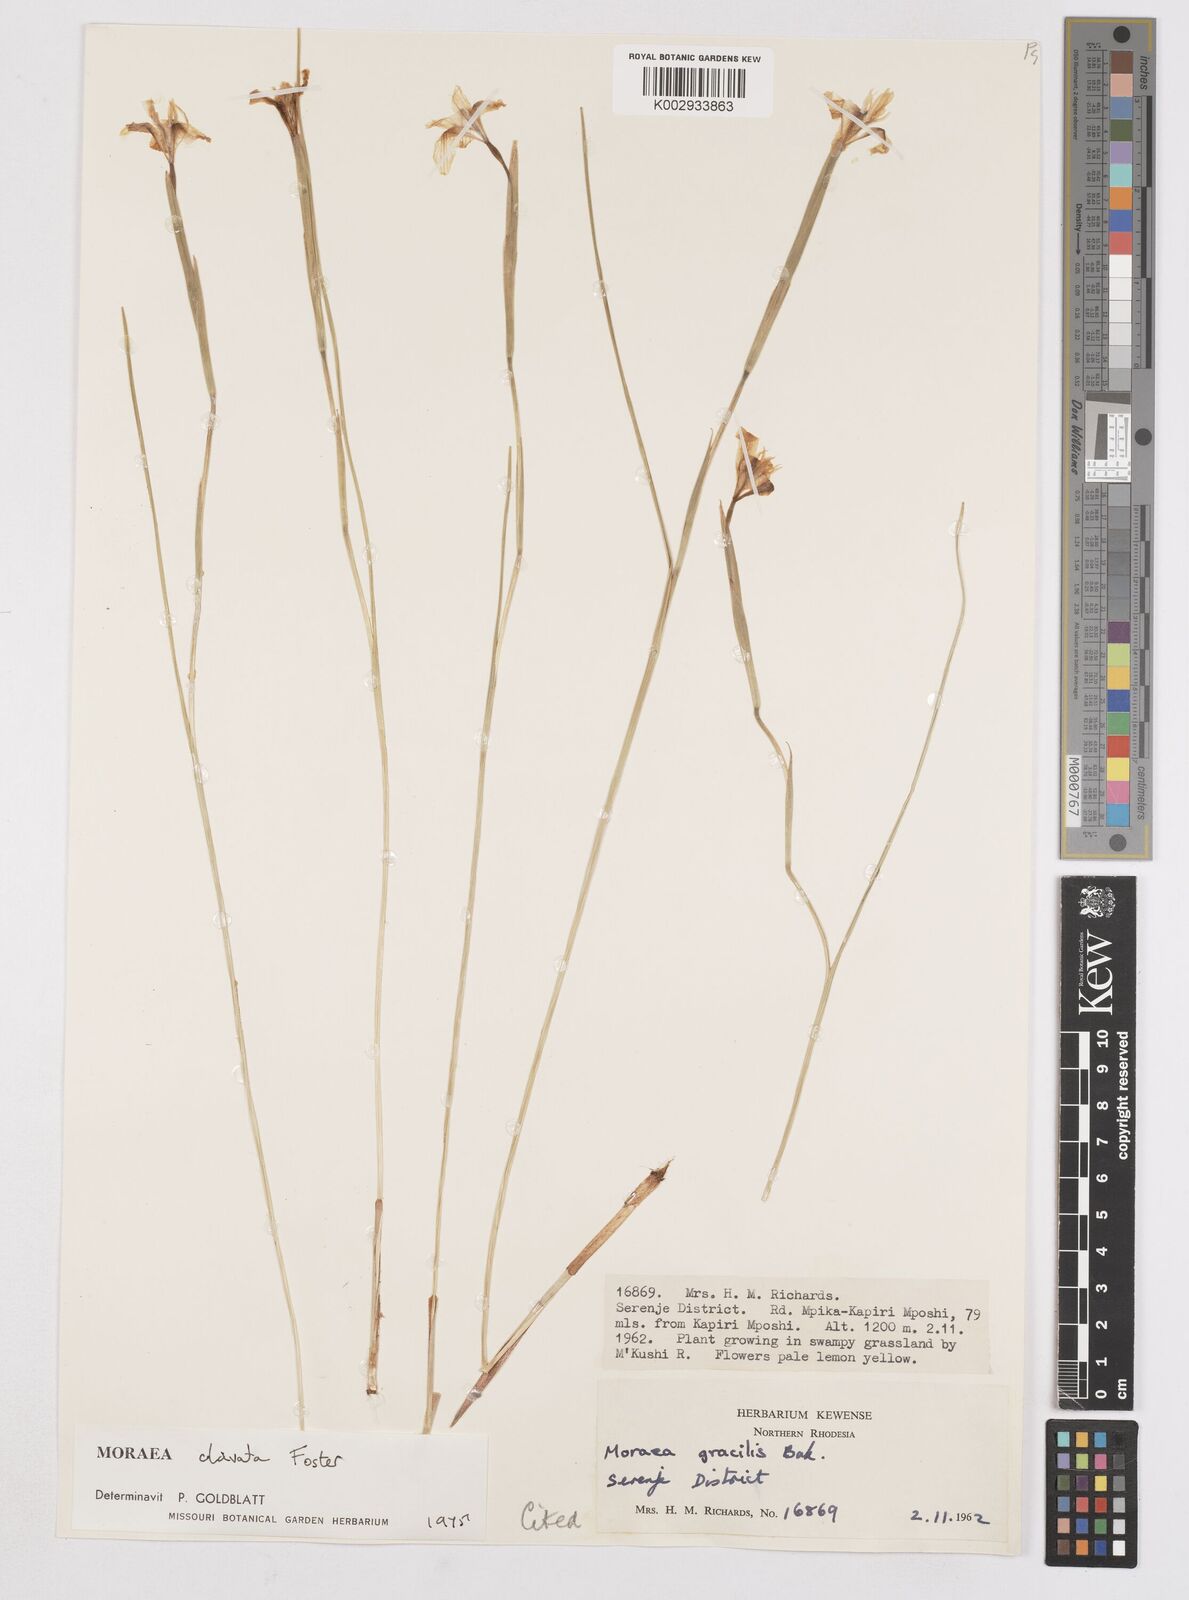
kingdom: Plantae
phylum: Tracheophyta
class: Liliopsida
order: Asparagales
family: Iridaceae
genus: Moraea
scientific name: Moraea clavata
